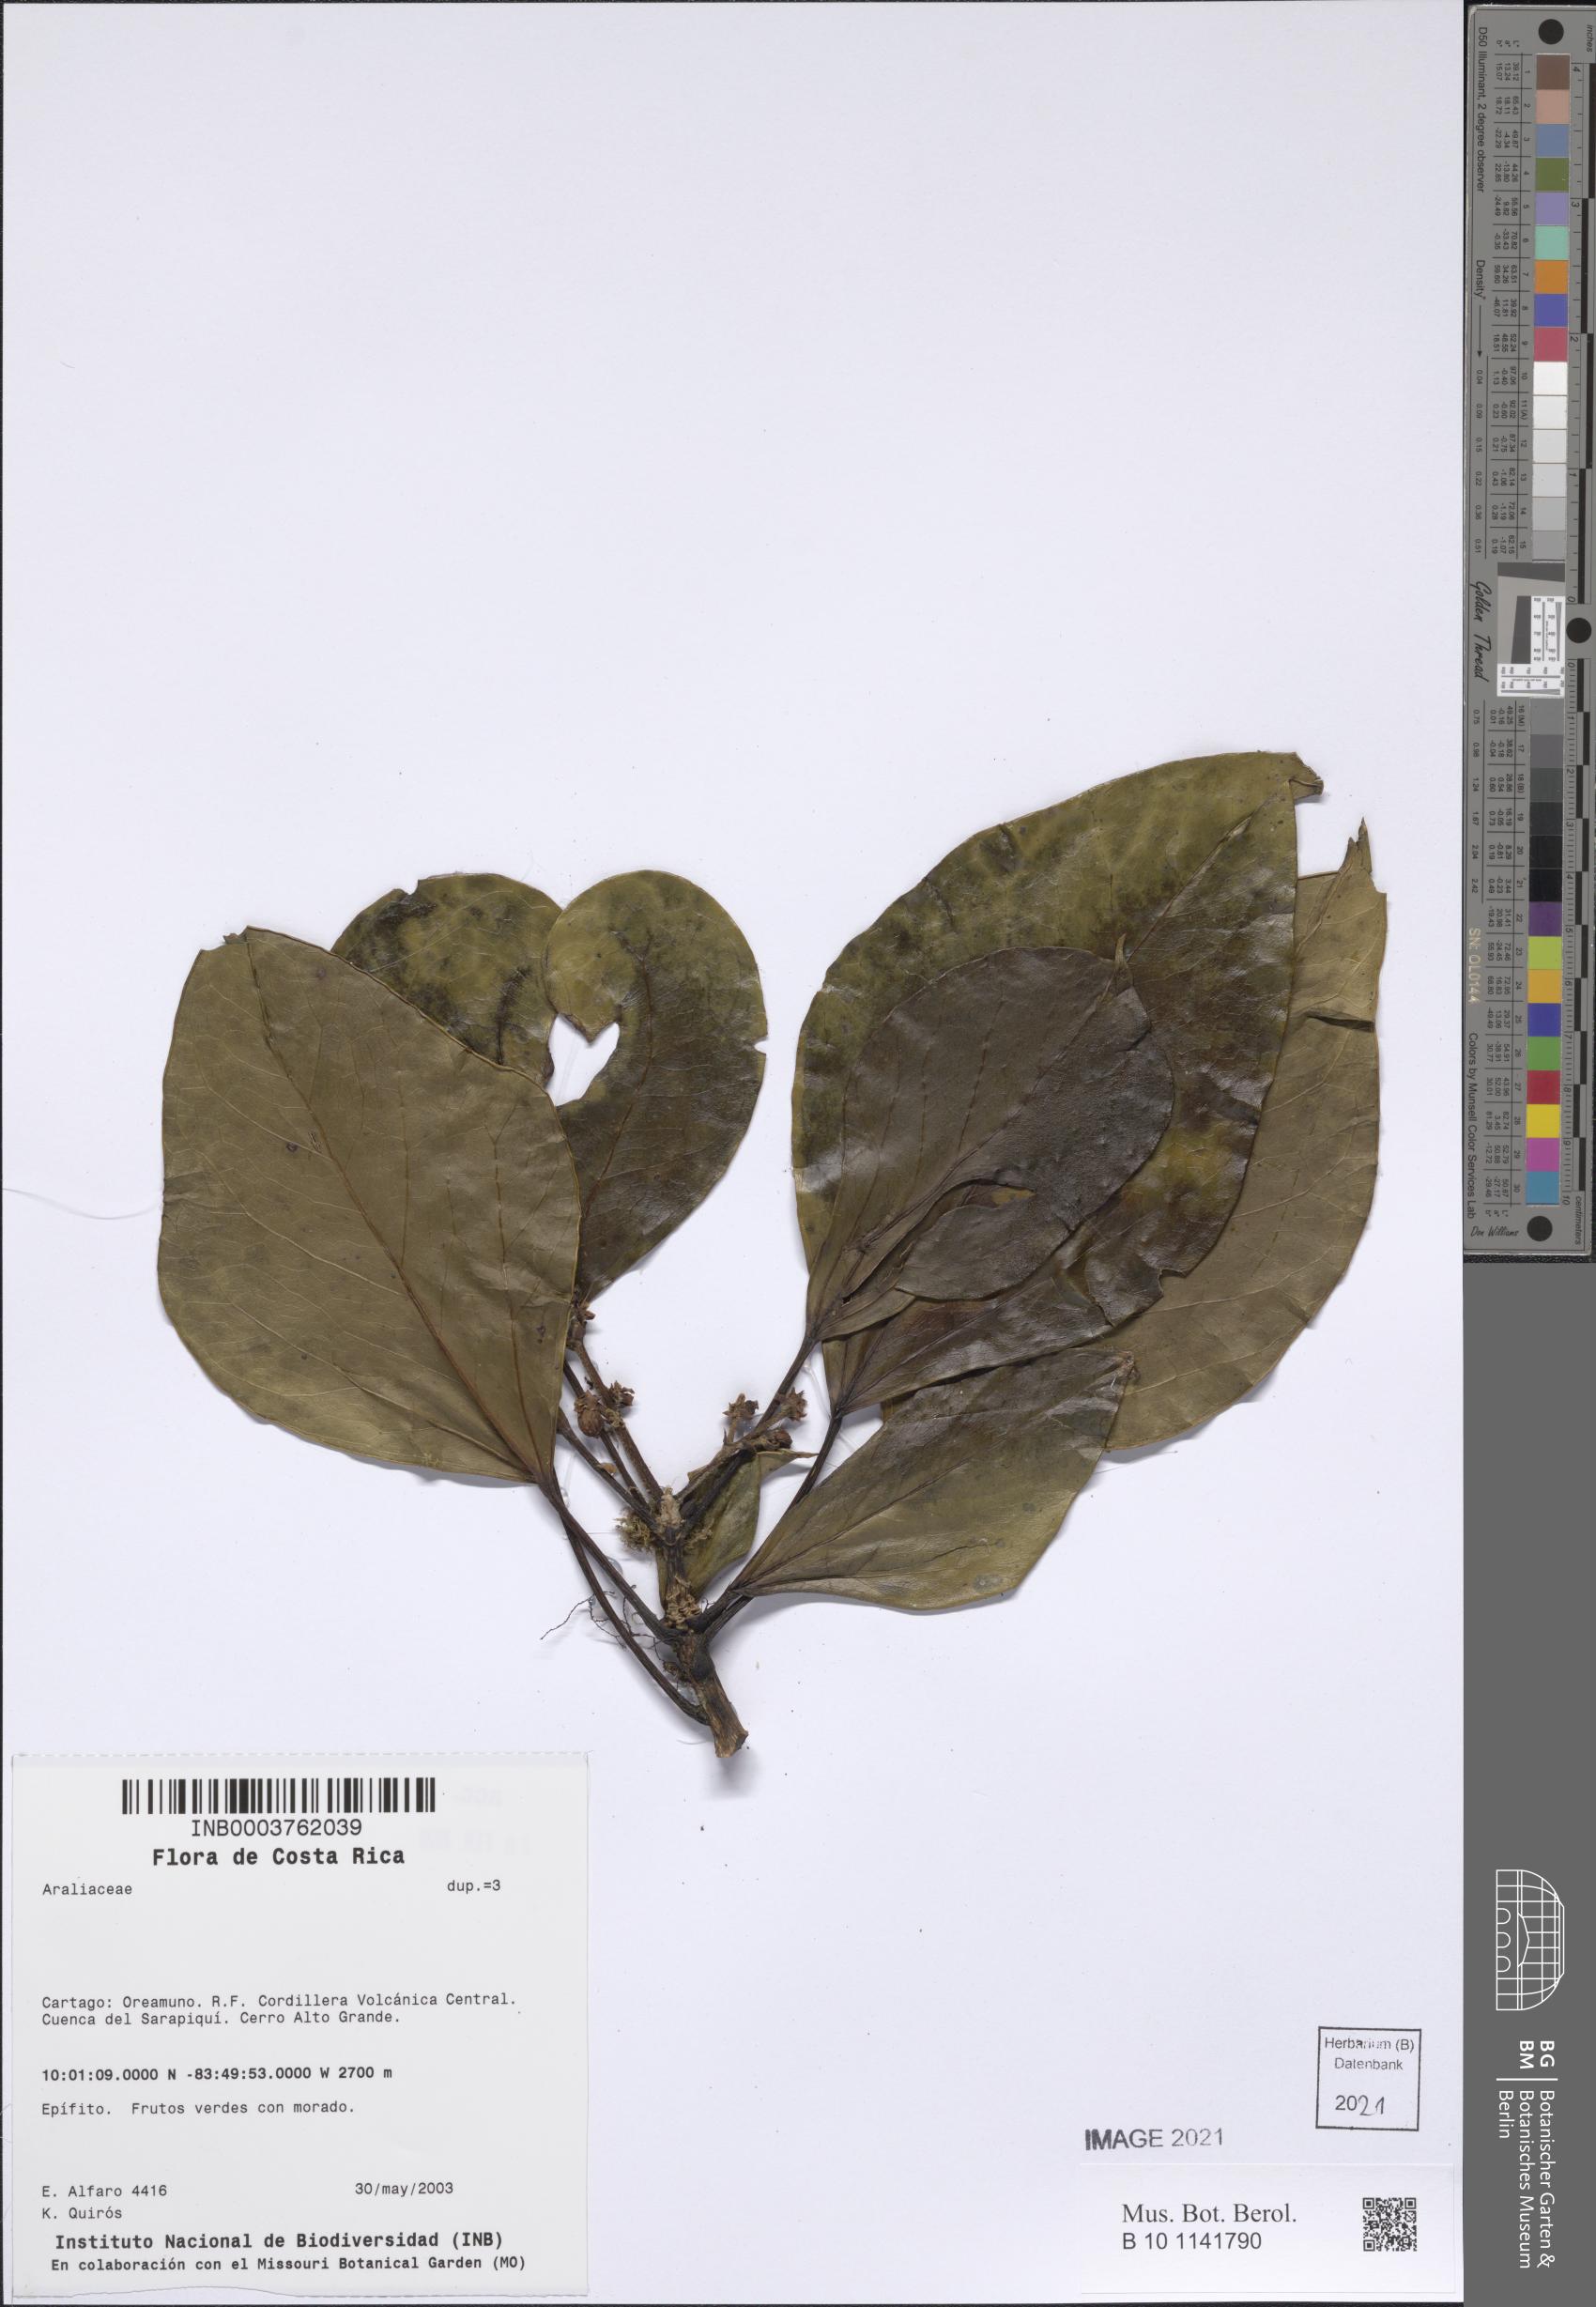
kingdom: Plantae
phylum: Tracheophyta
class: Magnoliopsida
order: Apiales
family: Araliaceae
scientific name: Araliaceae
